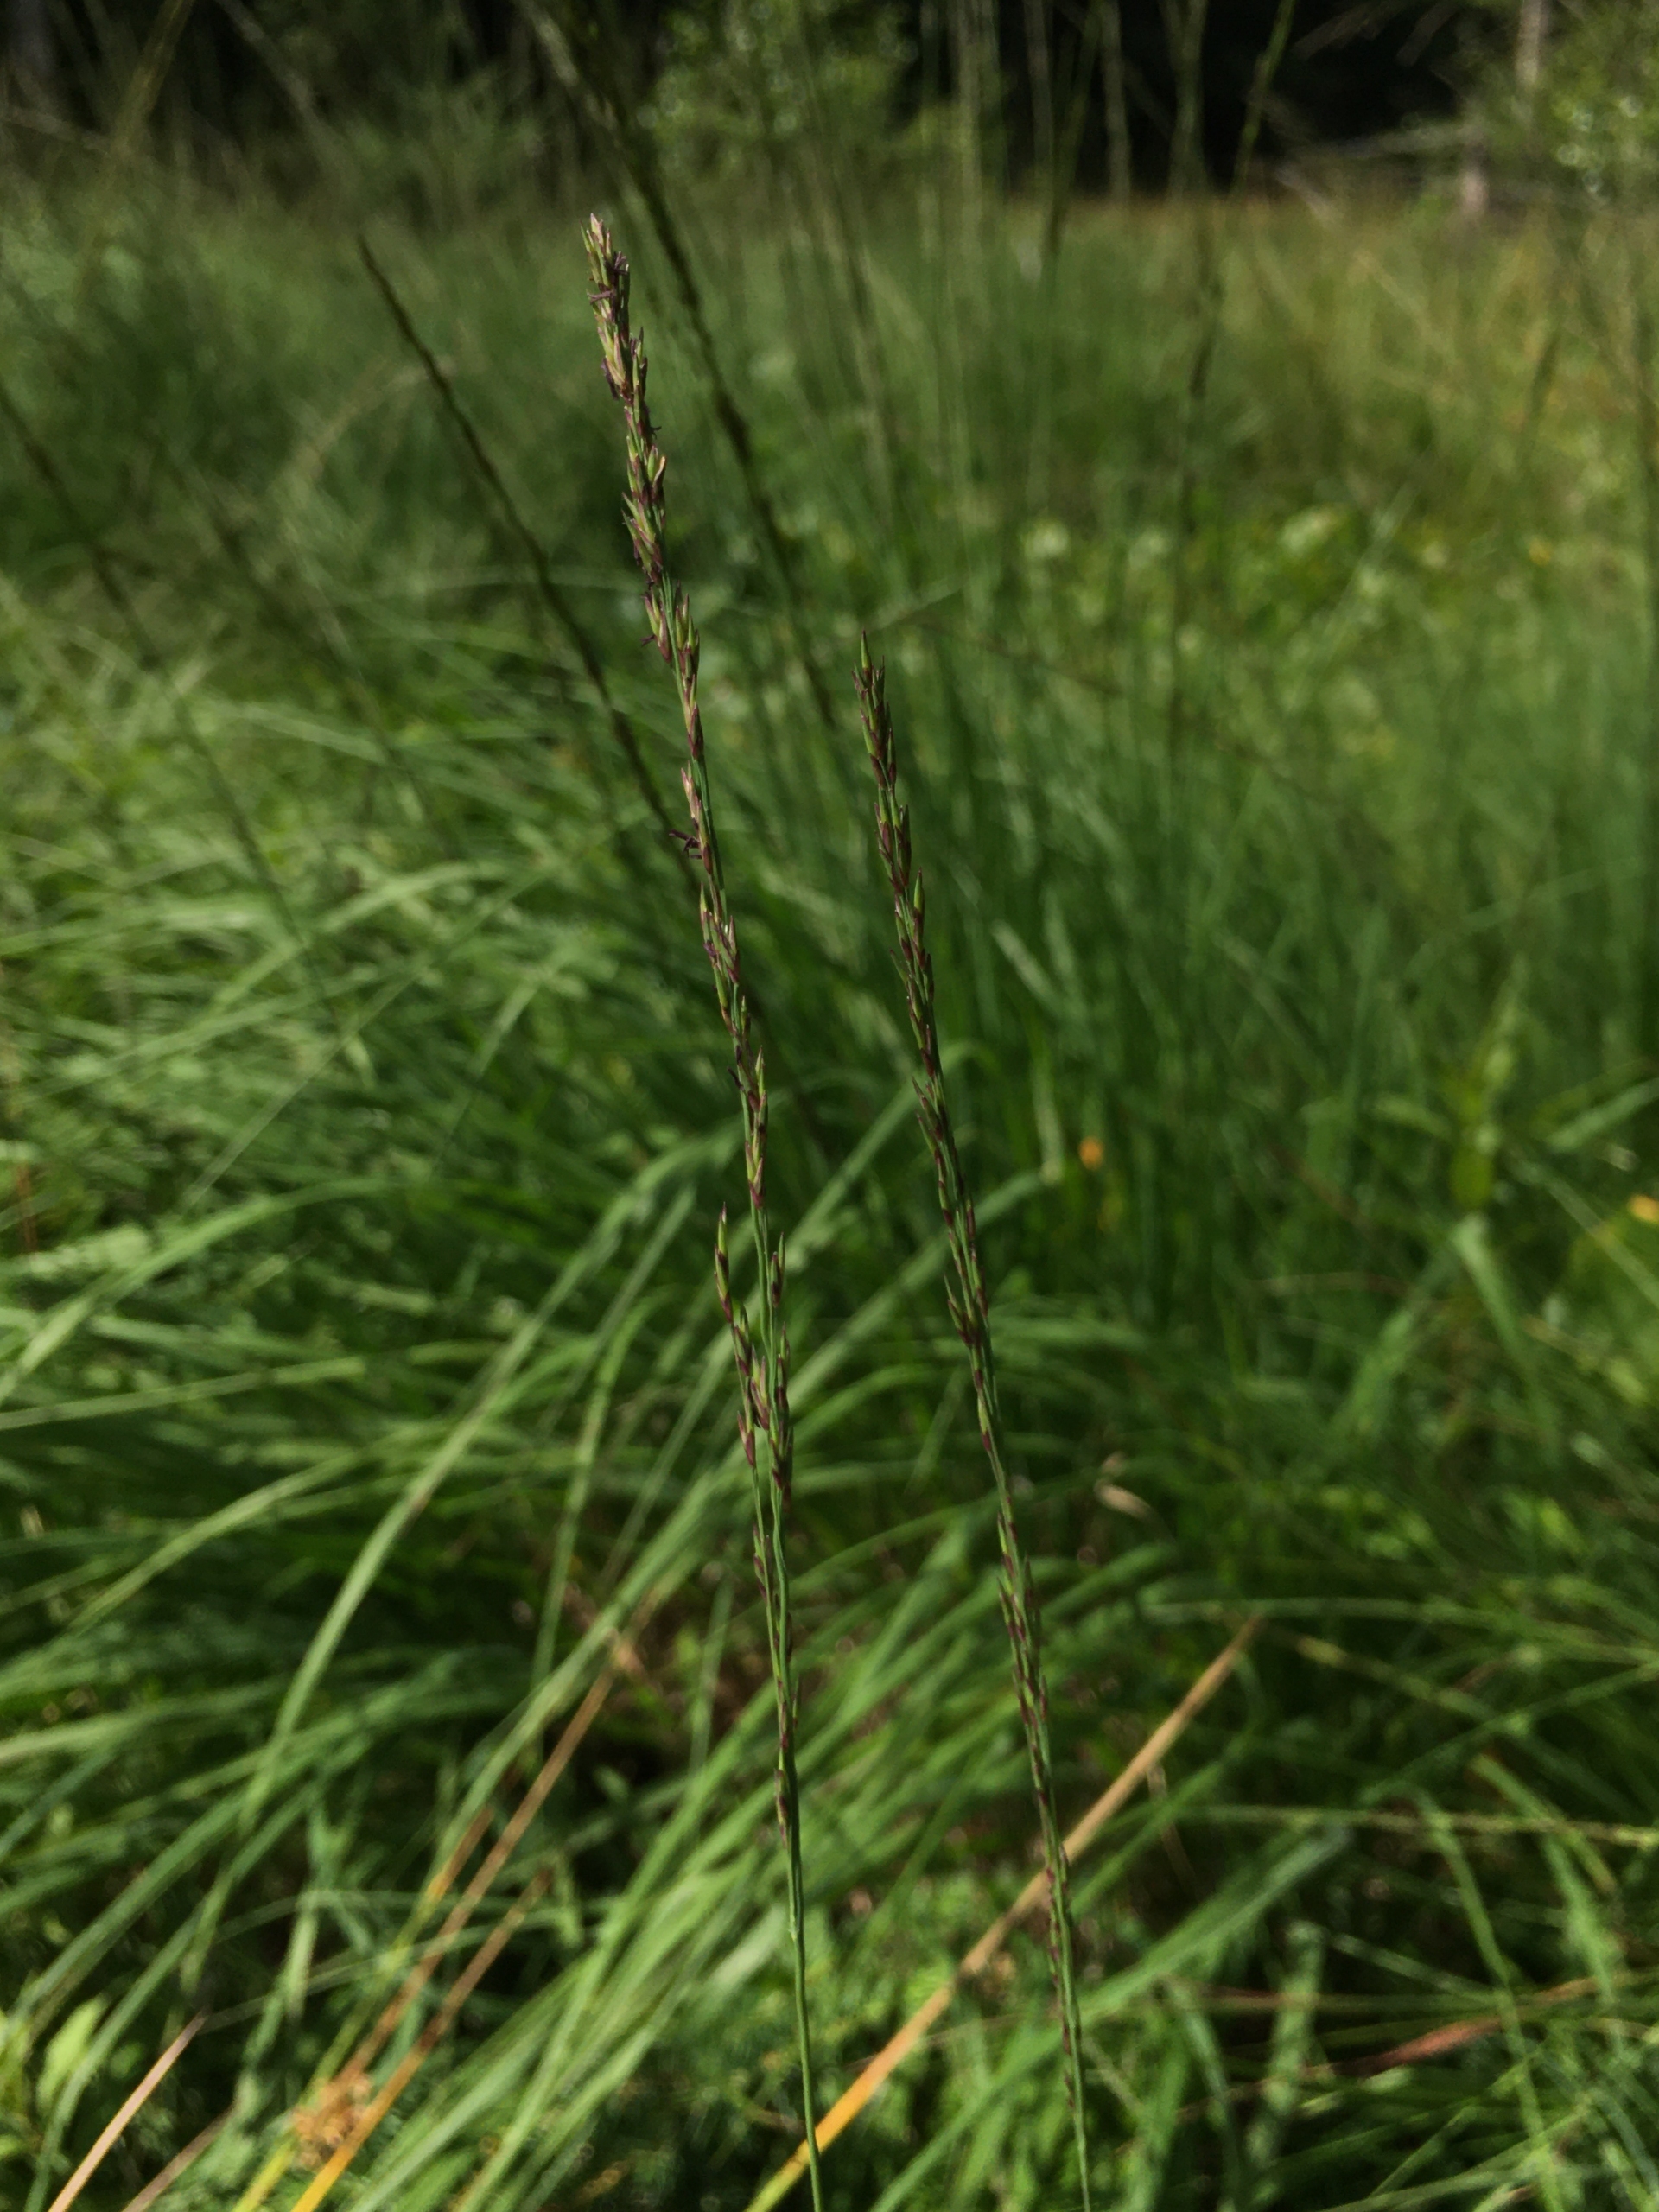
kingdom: Plantae
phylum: Tracheophyta
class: Liliopsida
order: Poales
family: Poaceae
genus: Molinia
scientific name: Molinia caerulea
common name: Blåtop
